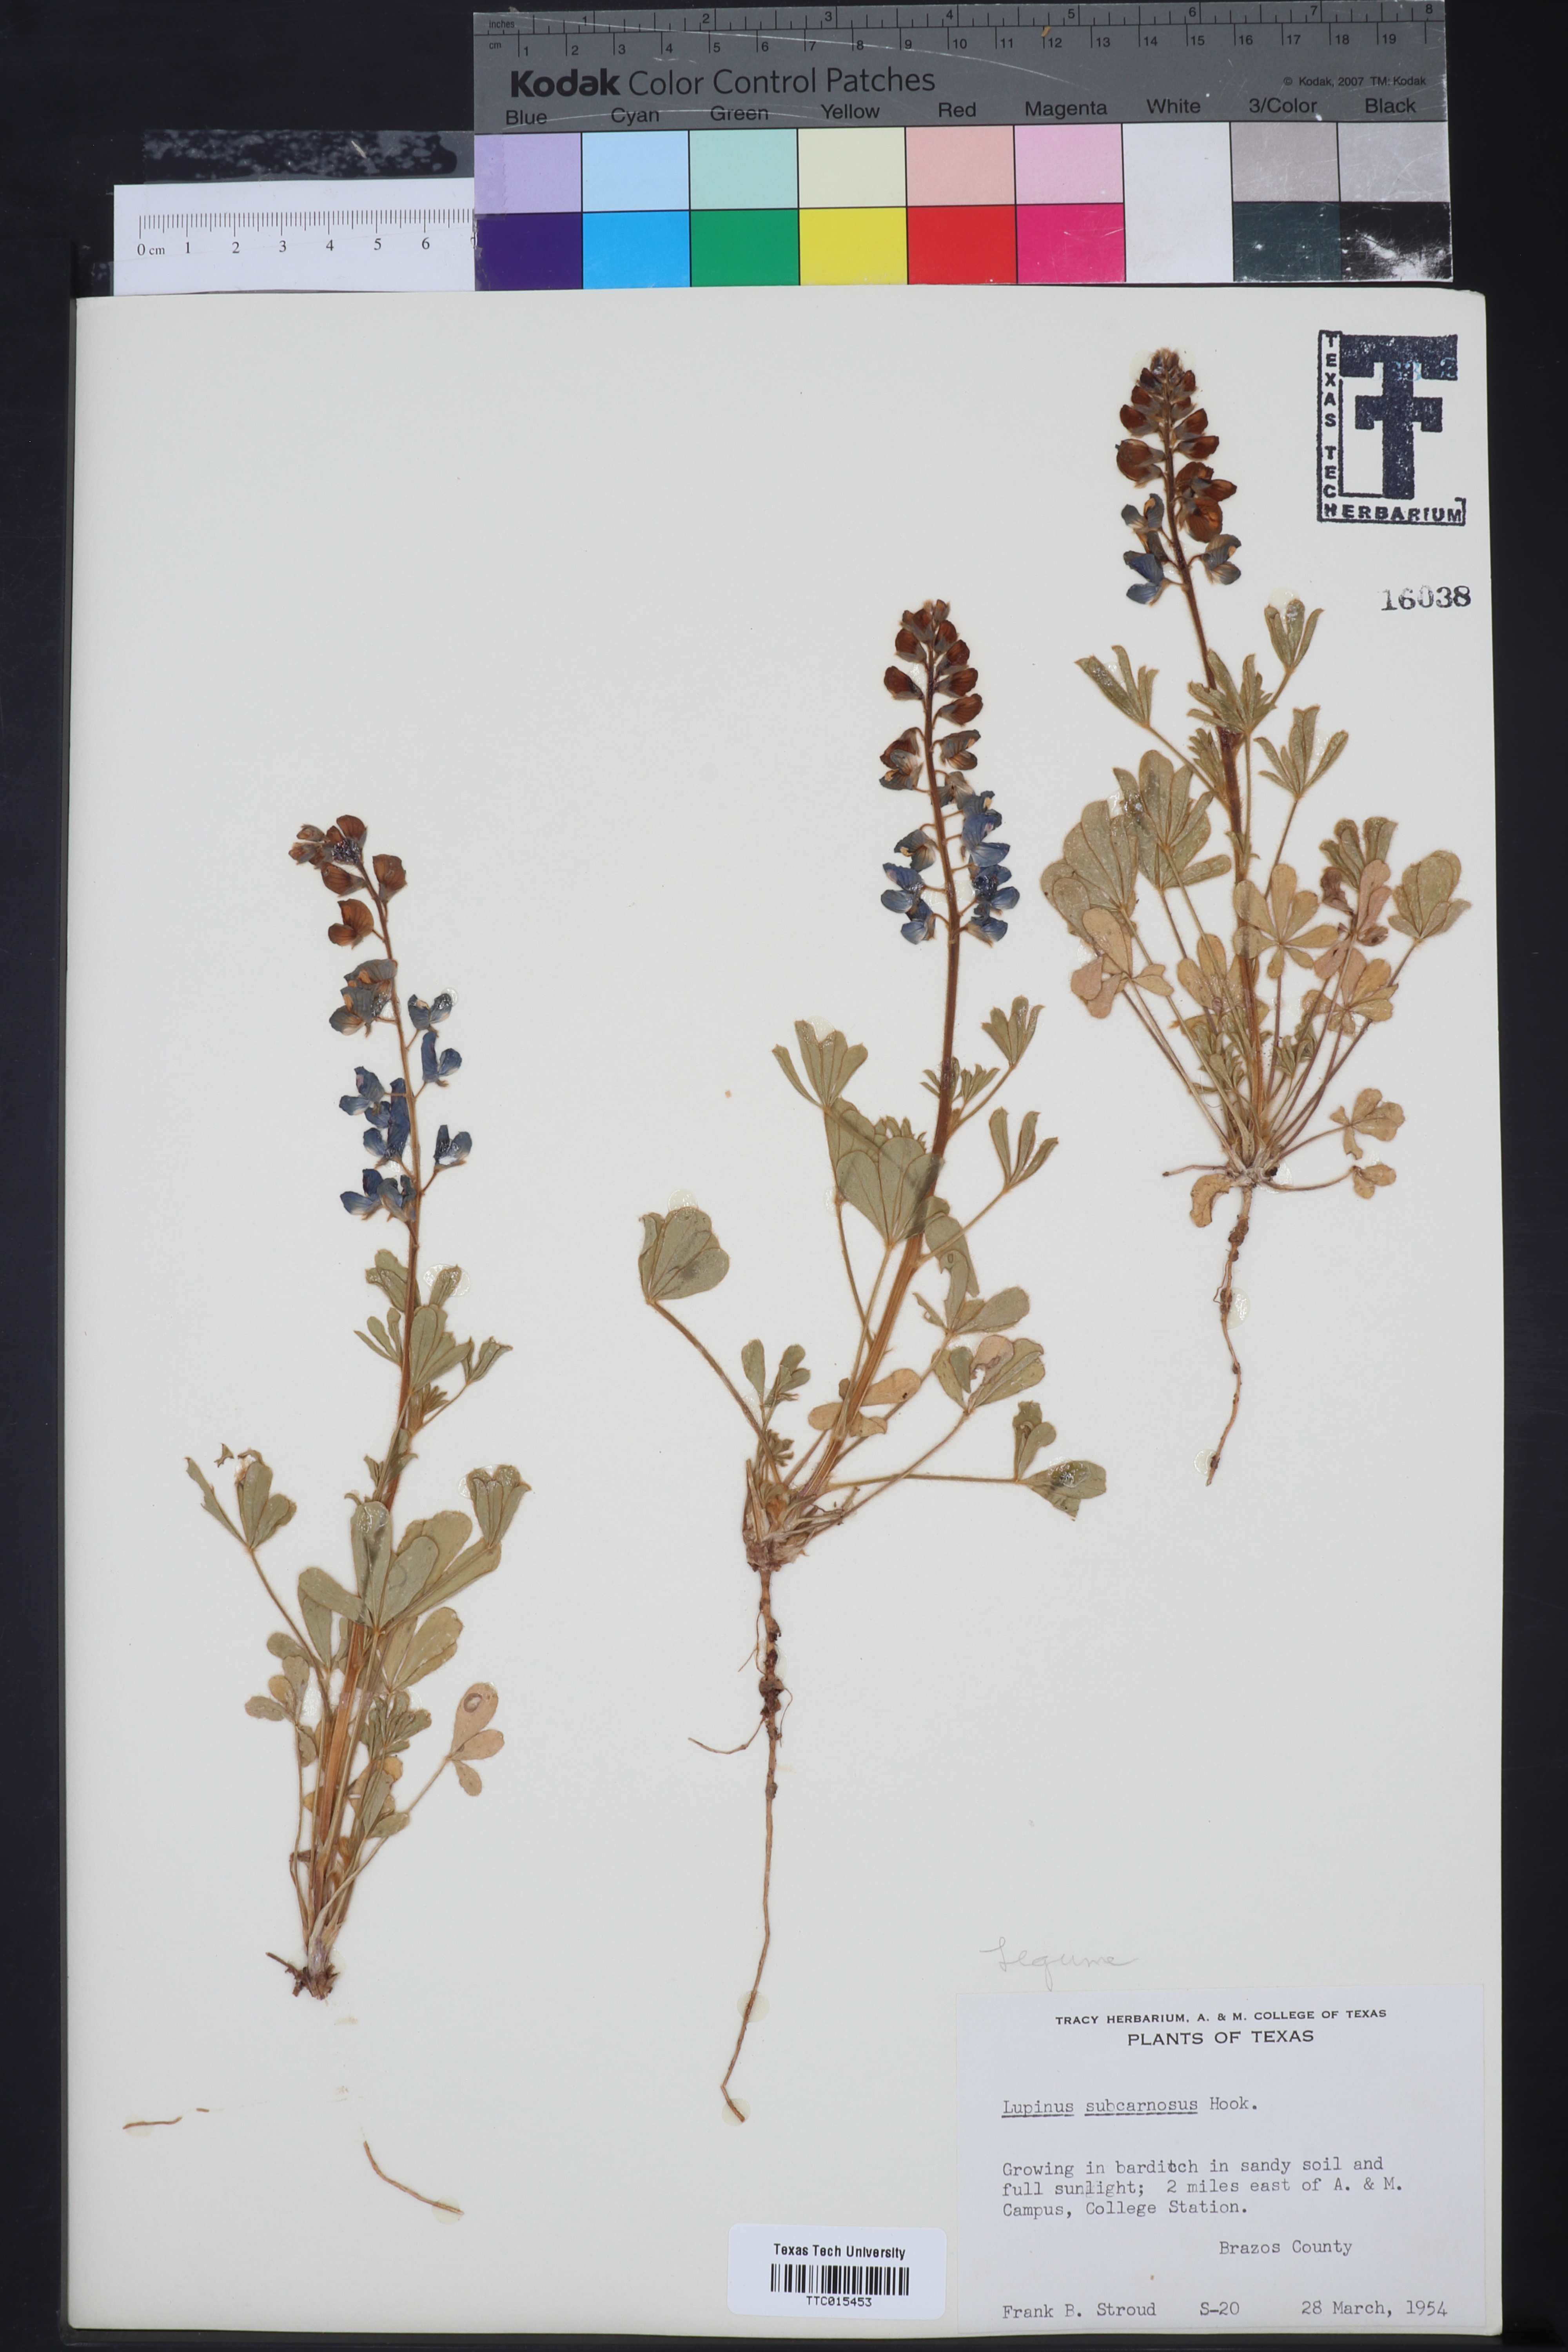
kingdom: Plantae
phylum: Tracheophyta
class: Magnoliopsida
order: Fabales
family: Fabaceae
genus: Lupinus
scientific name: Lupinus subcarnosus
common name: Texas bluebonnet
